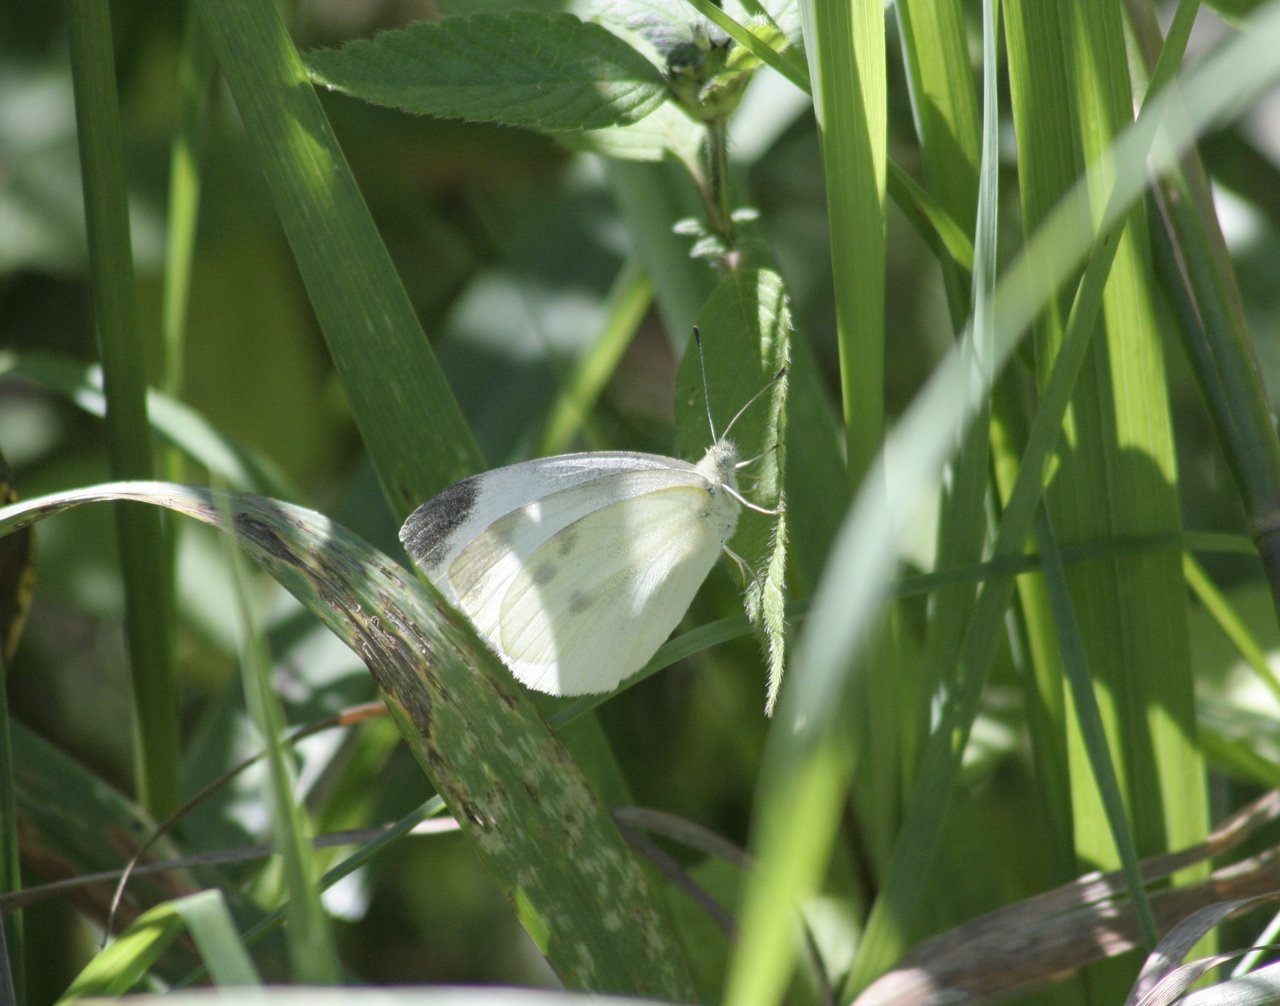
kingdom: Animalia
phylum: Arthropoda
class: Insecta
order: Lepidoptera
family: Pieridae
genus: Pieris
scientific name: Pieris rapae
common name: Cabbage White
